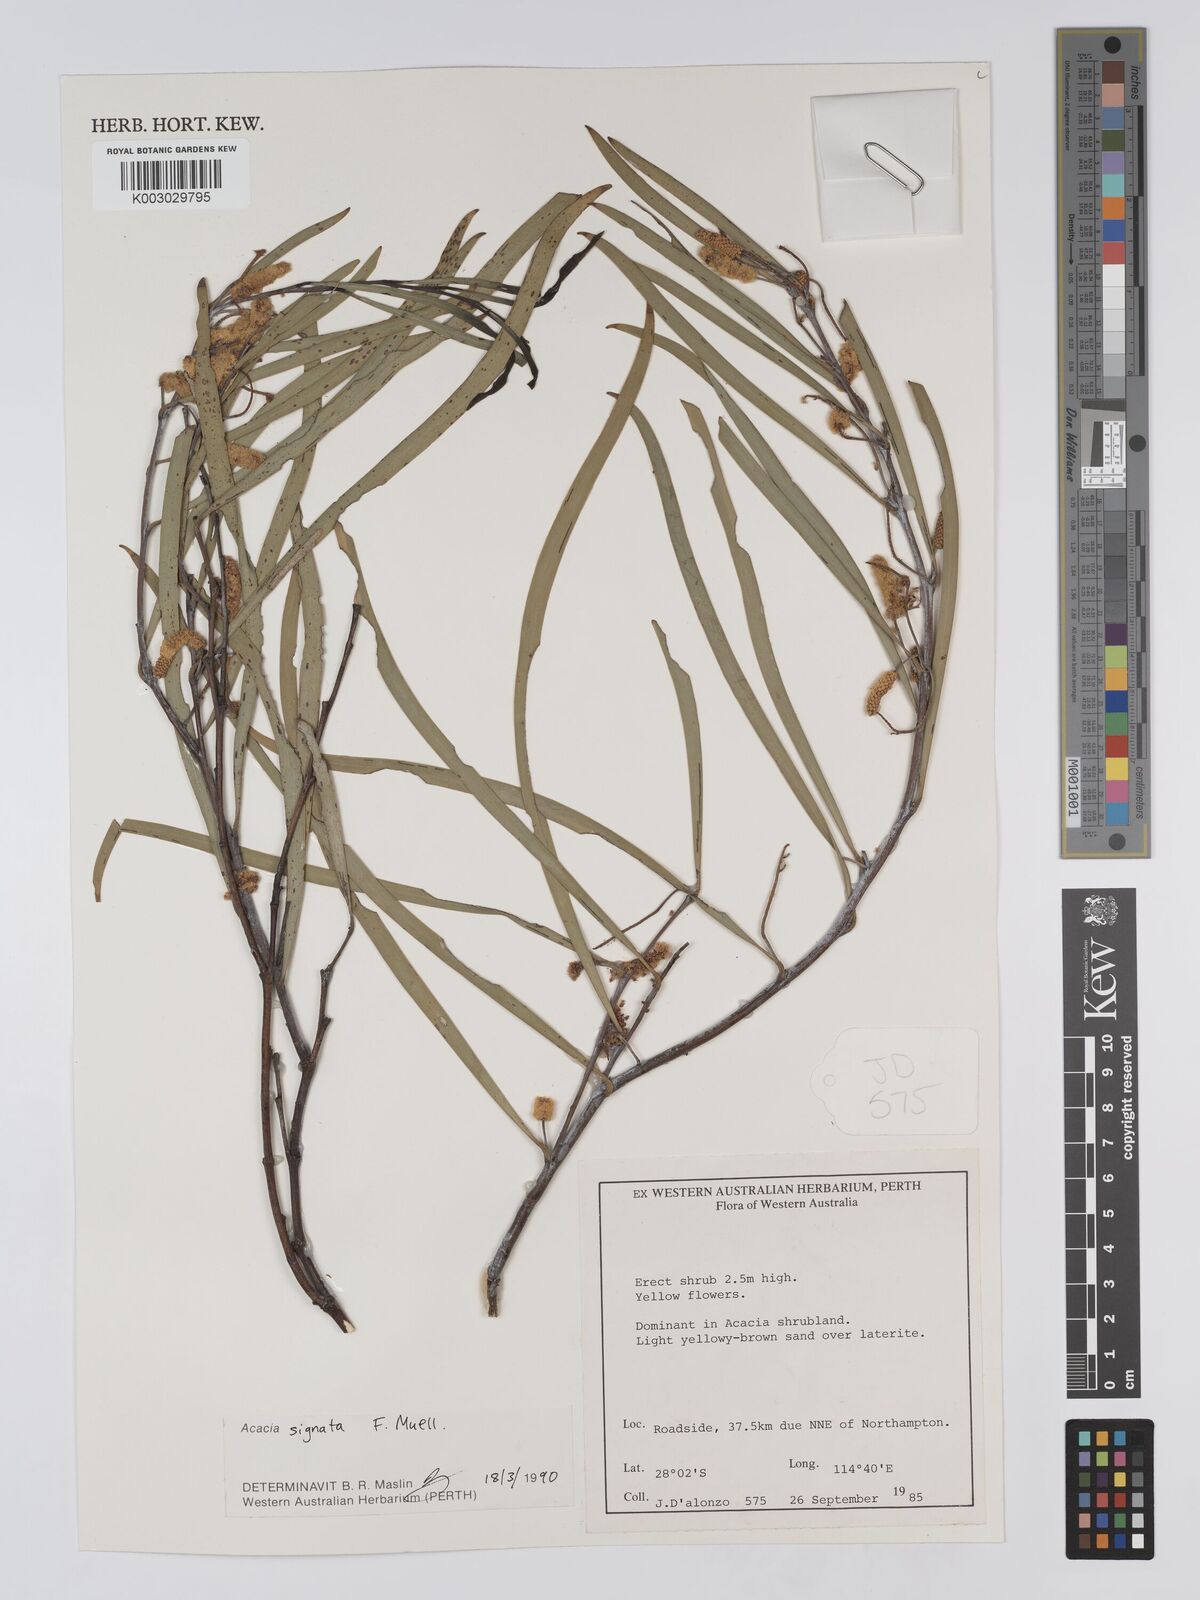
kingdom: Plantae
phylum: Tracheophyta
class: Magnoliopsida
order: Fabales
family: Fabaceae
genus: Acacia
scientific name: Acacia signata
